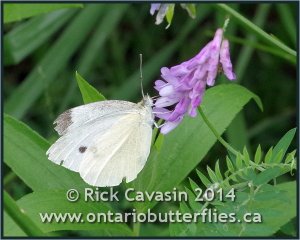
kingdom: Animalia
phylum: Arthropoda
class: Insecta
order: Lepidoptera
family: Pieridae
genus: Pieris
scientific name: Pieris rapae
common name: Cabbage White
